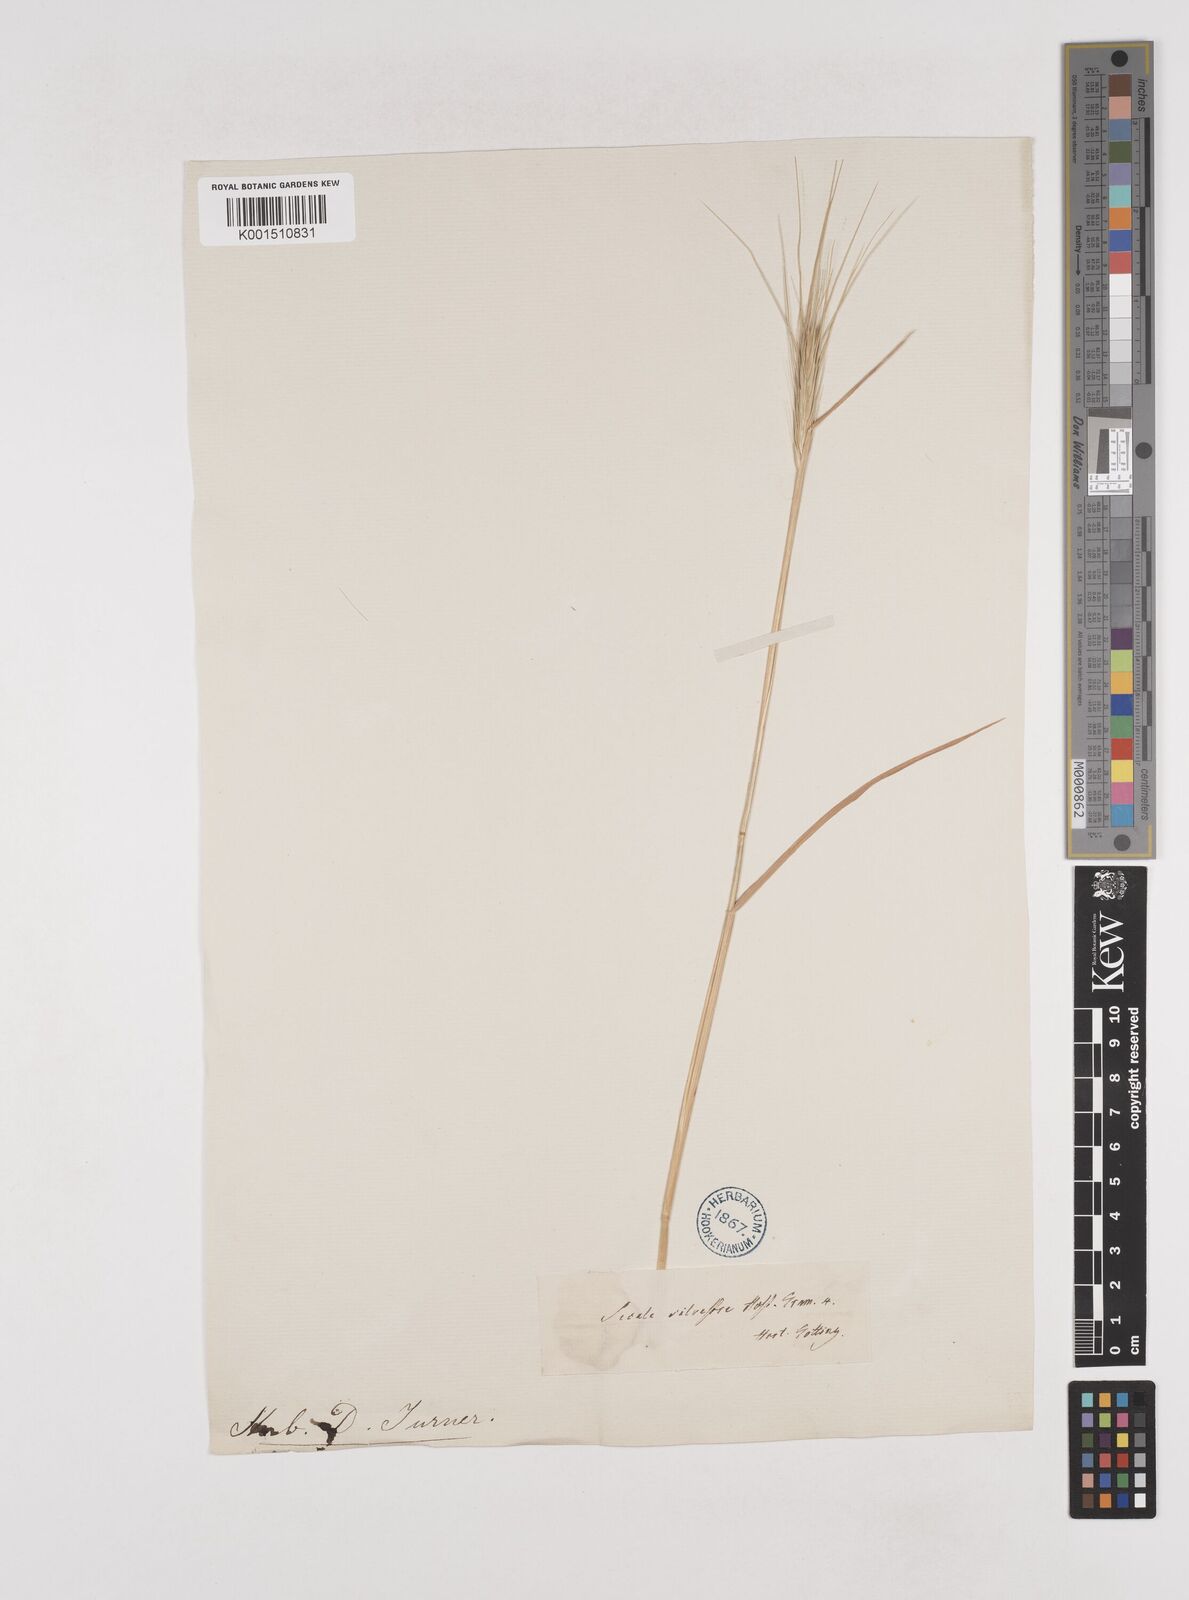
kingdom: Plantae
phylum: Tracheophyta
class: Liliopsida
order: Poales
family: Poaceae
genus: Secale
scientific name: Secale sylvestre
